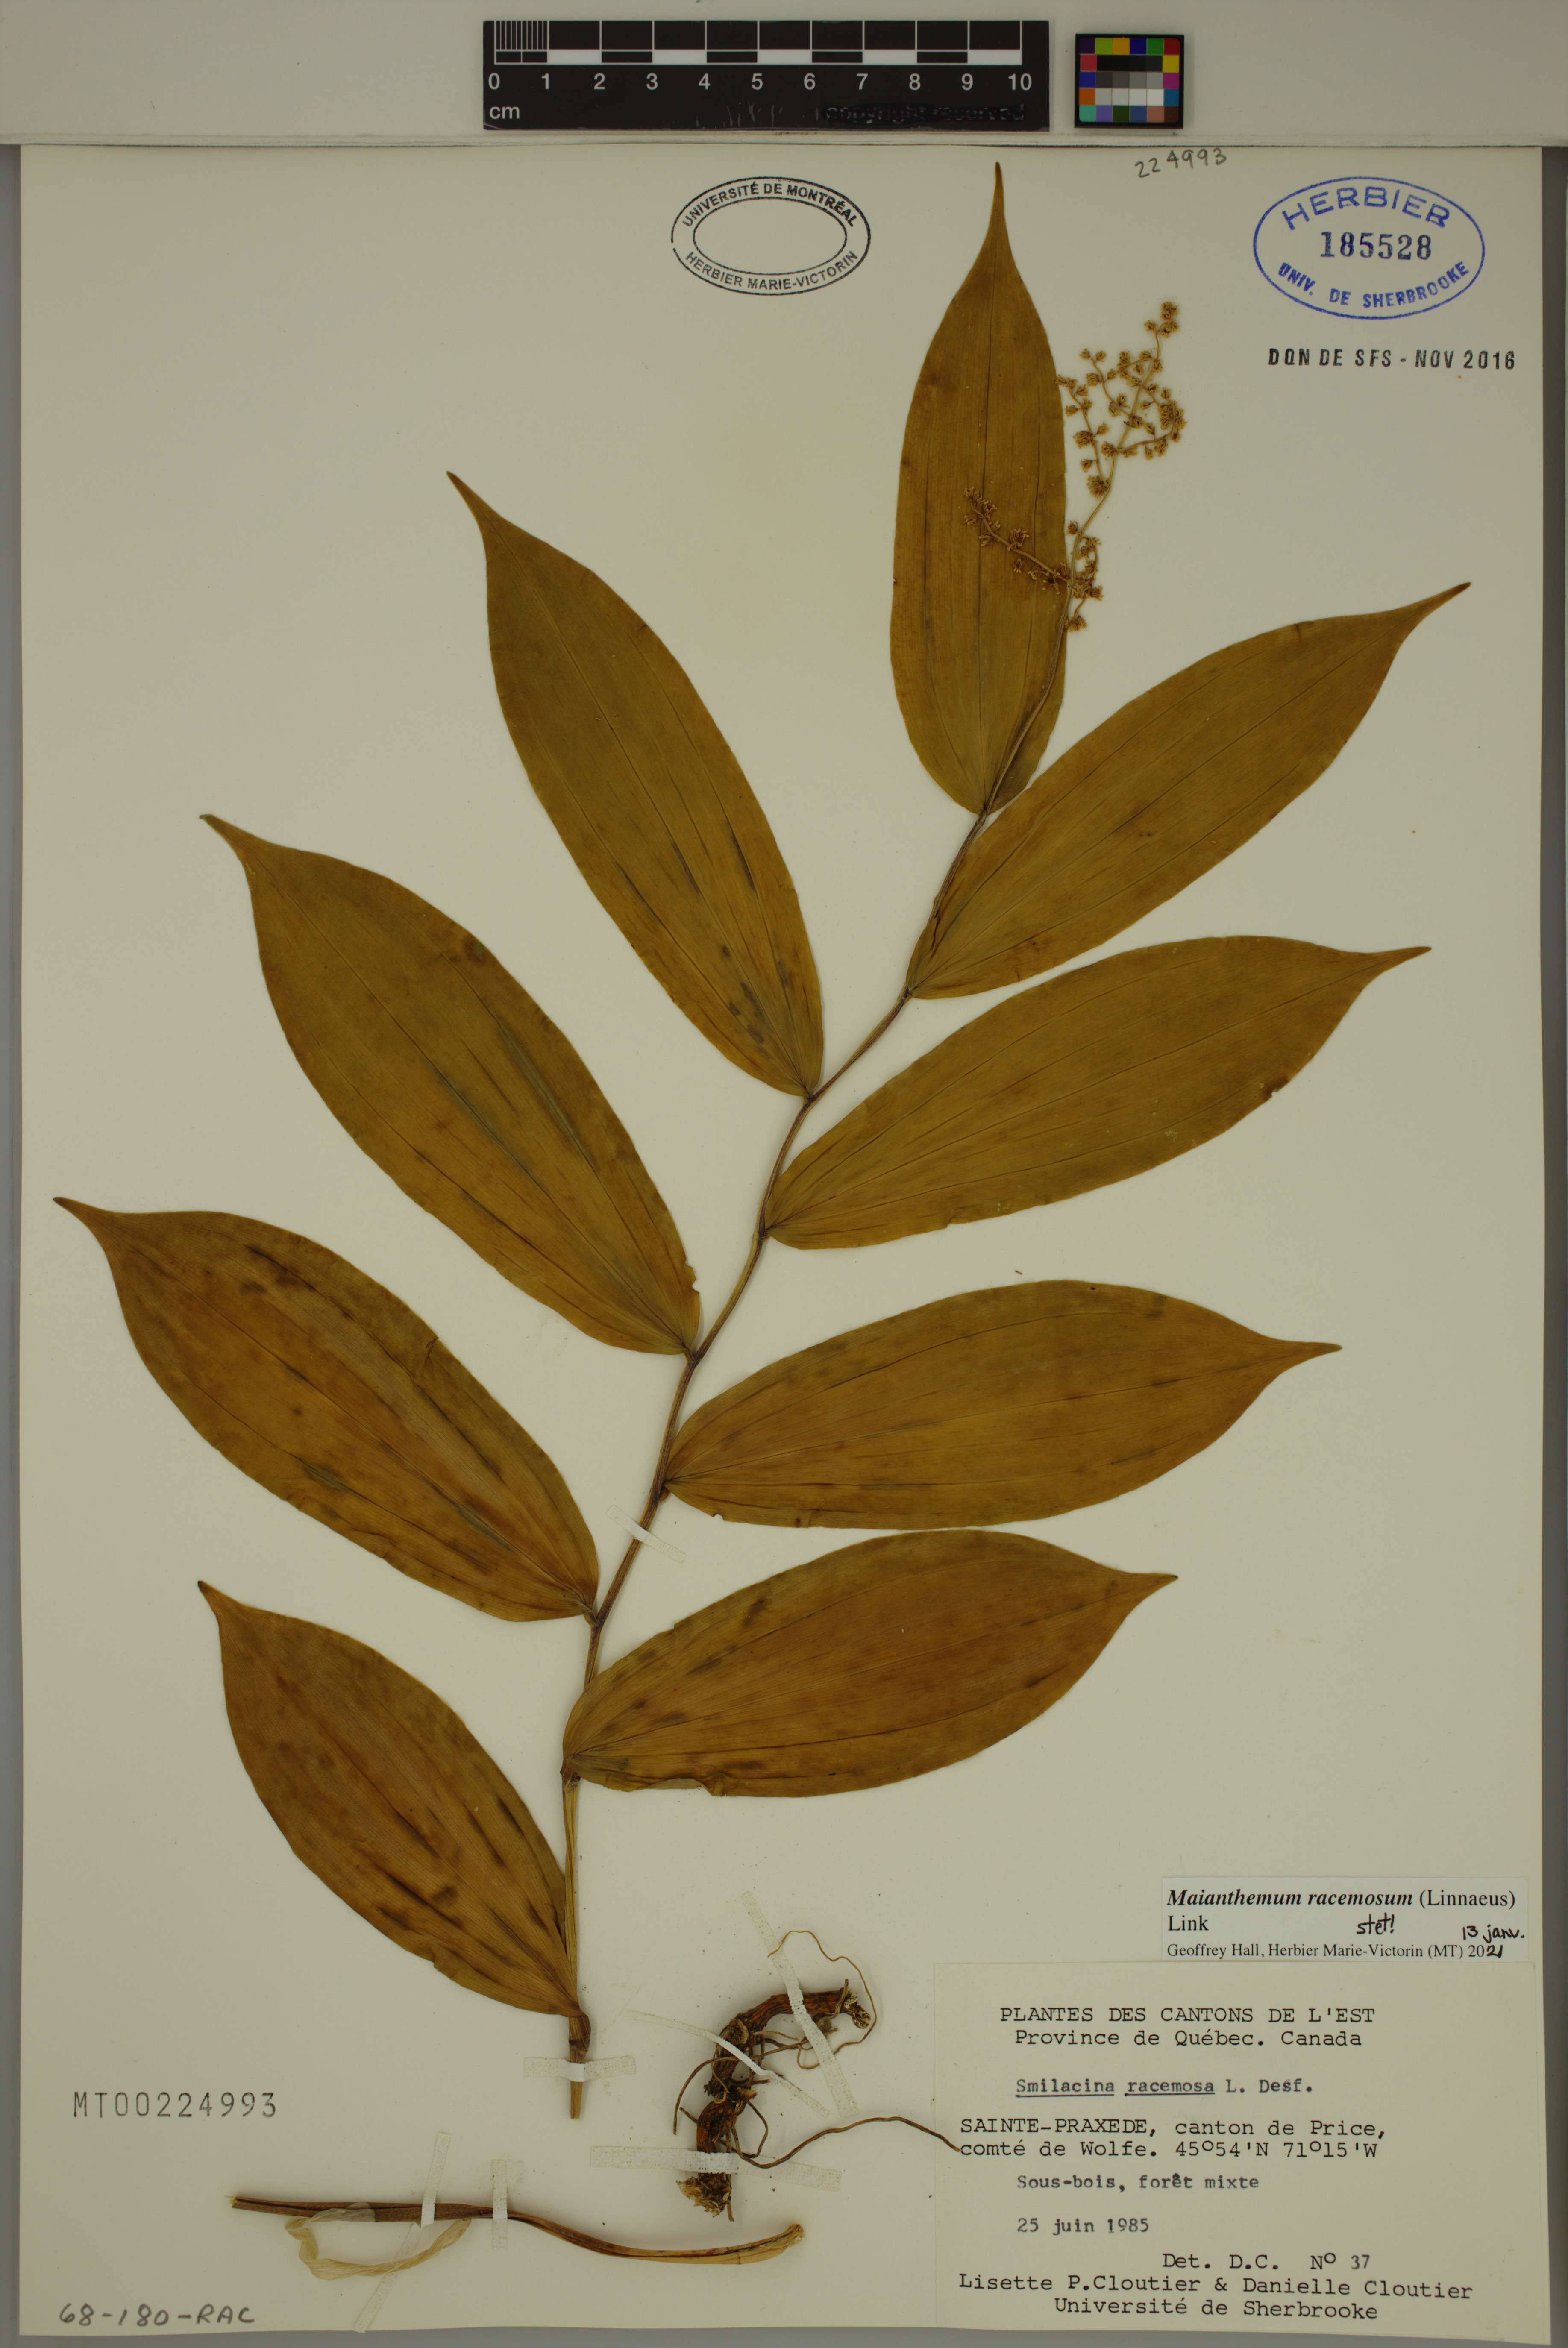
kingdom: Plantae
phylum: Tracheophyta
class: Liliopsida
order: Asparagales
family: Asparagaceae
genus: Maianthemum
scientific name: Maianthemum racemosum
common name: False spikenard
